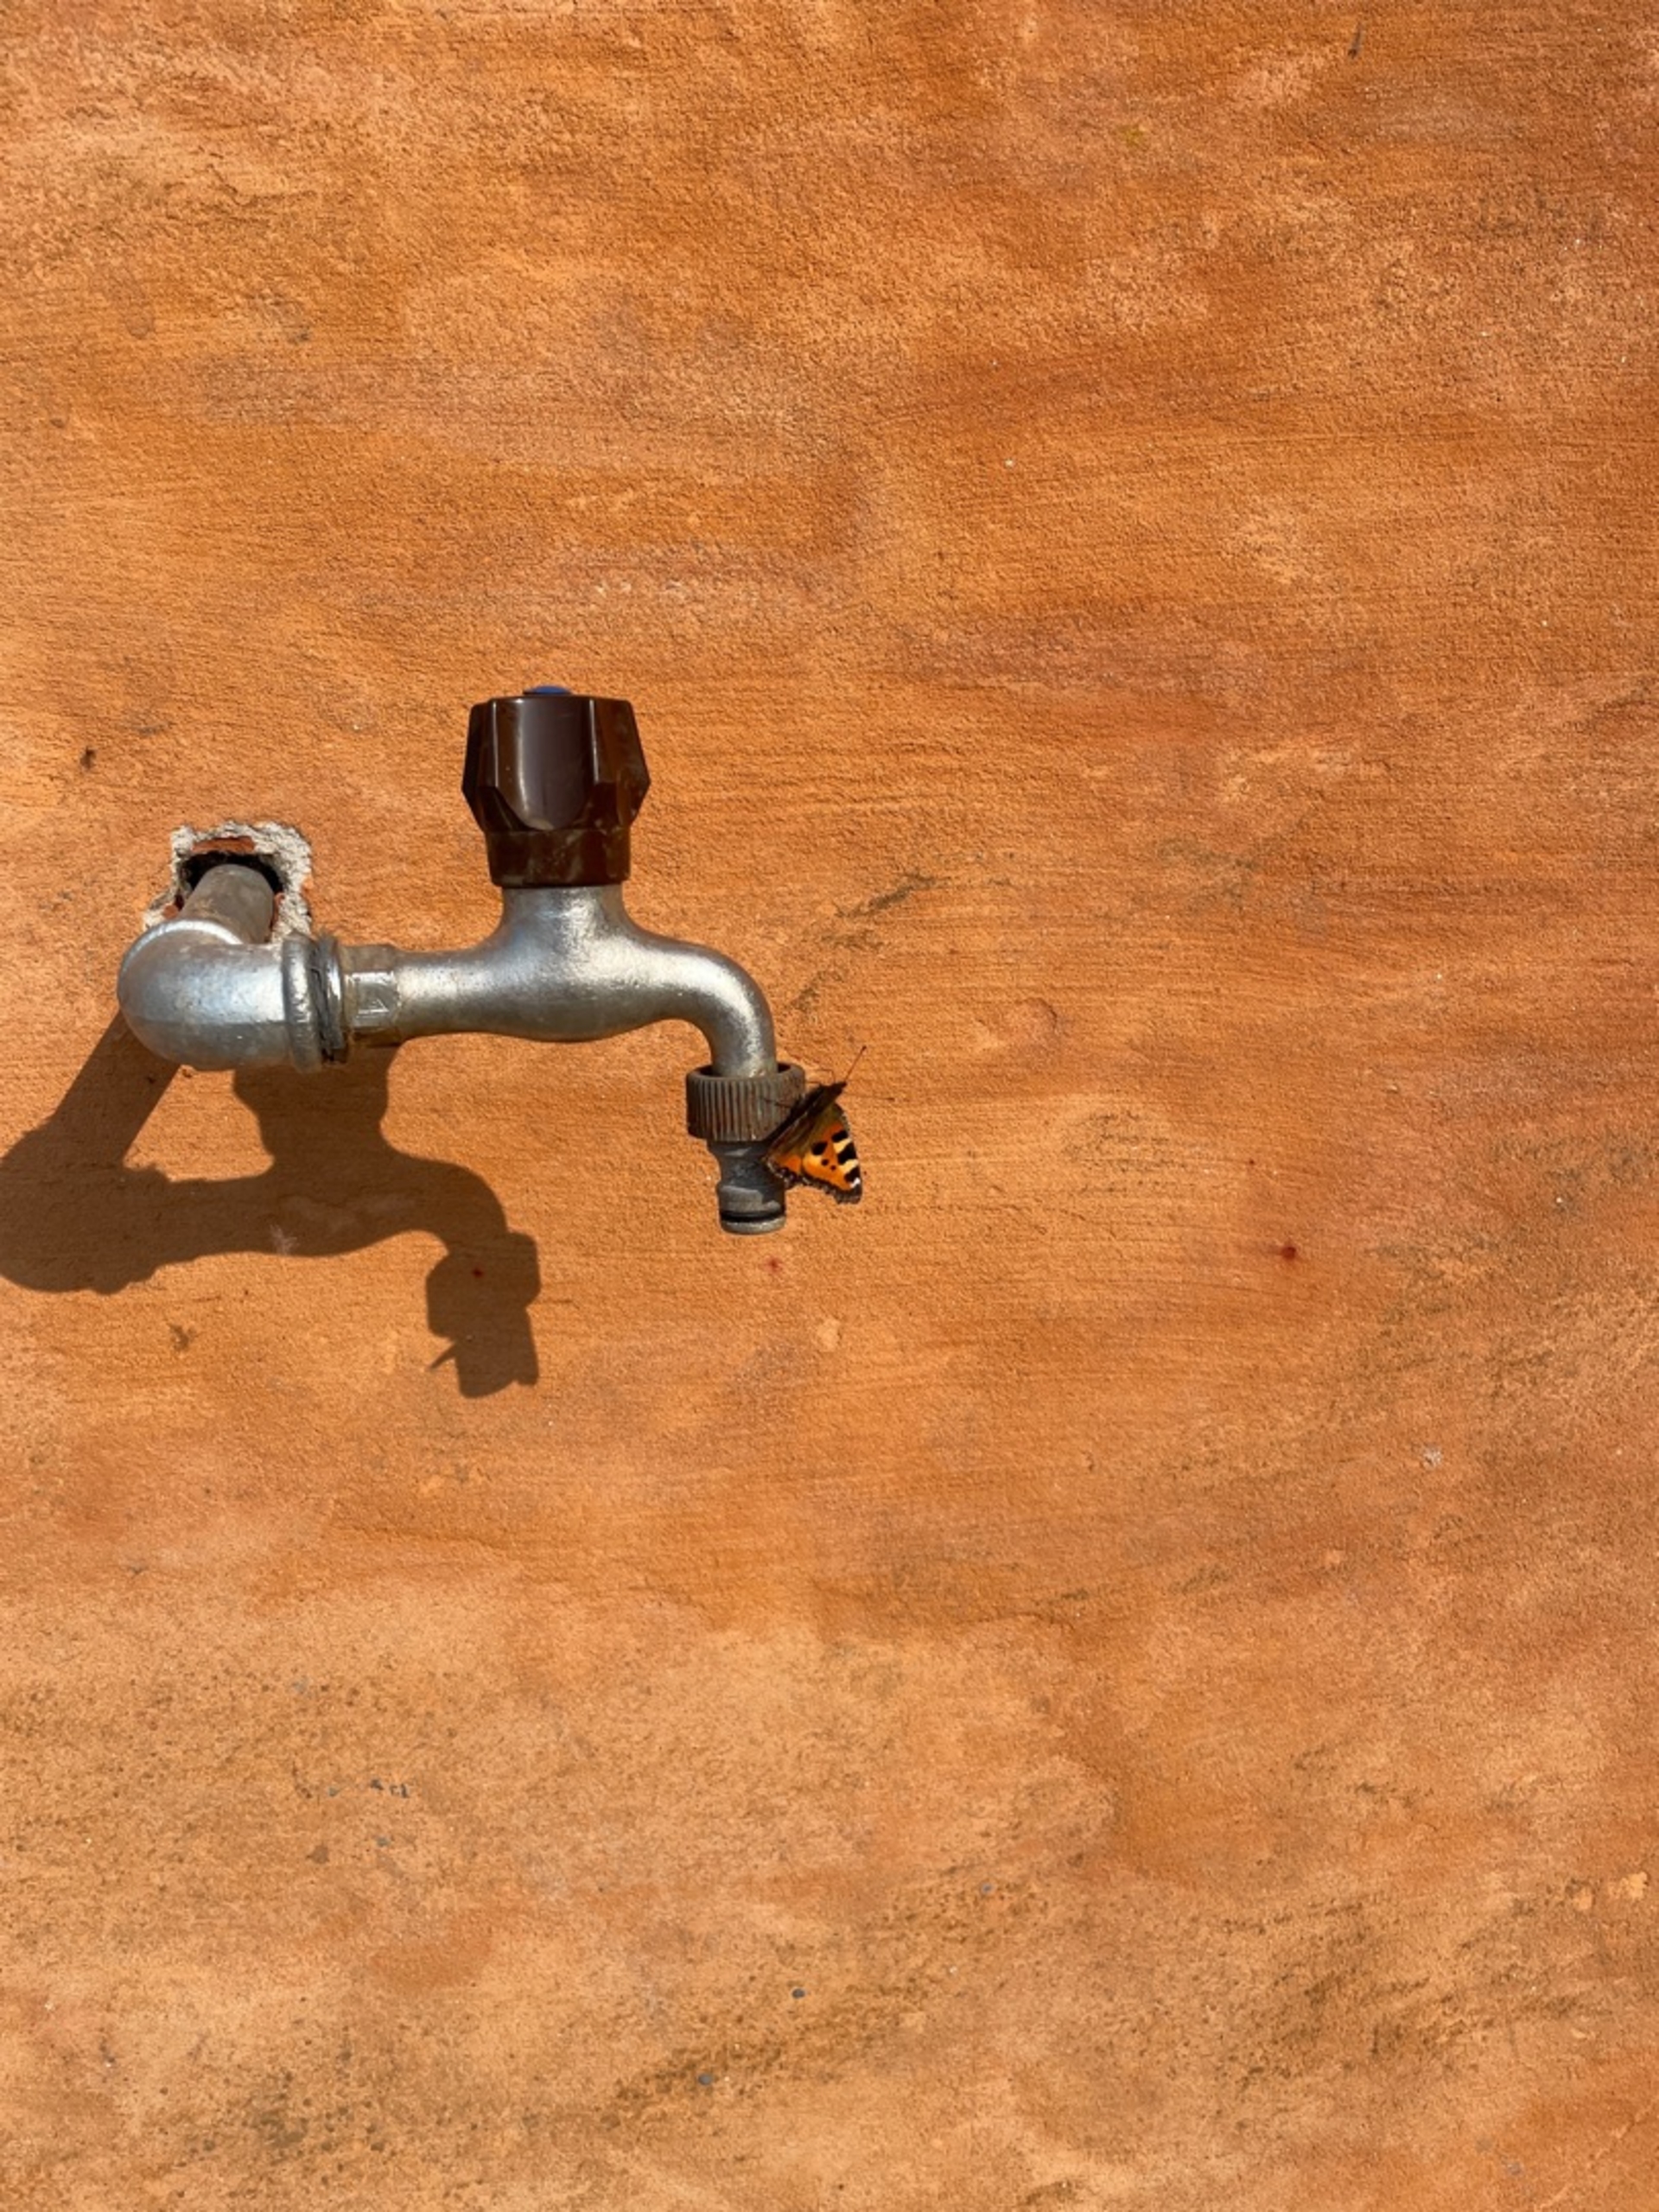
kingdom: Animalia
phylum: Arthropoda
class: Insecta
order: Lepidoptera
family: Nymphalidae
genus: Aglais
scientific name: Aglais urticae
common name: Nældens takvinge
